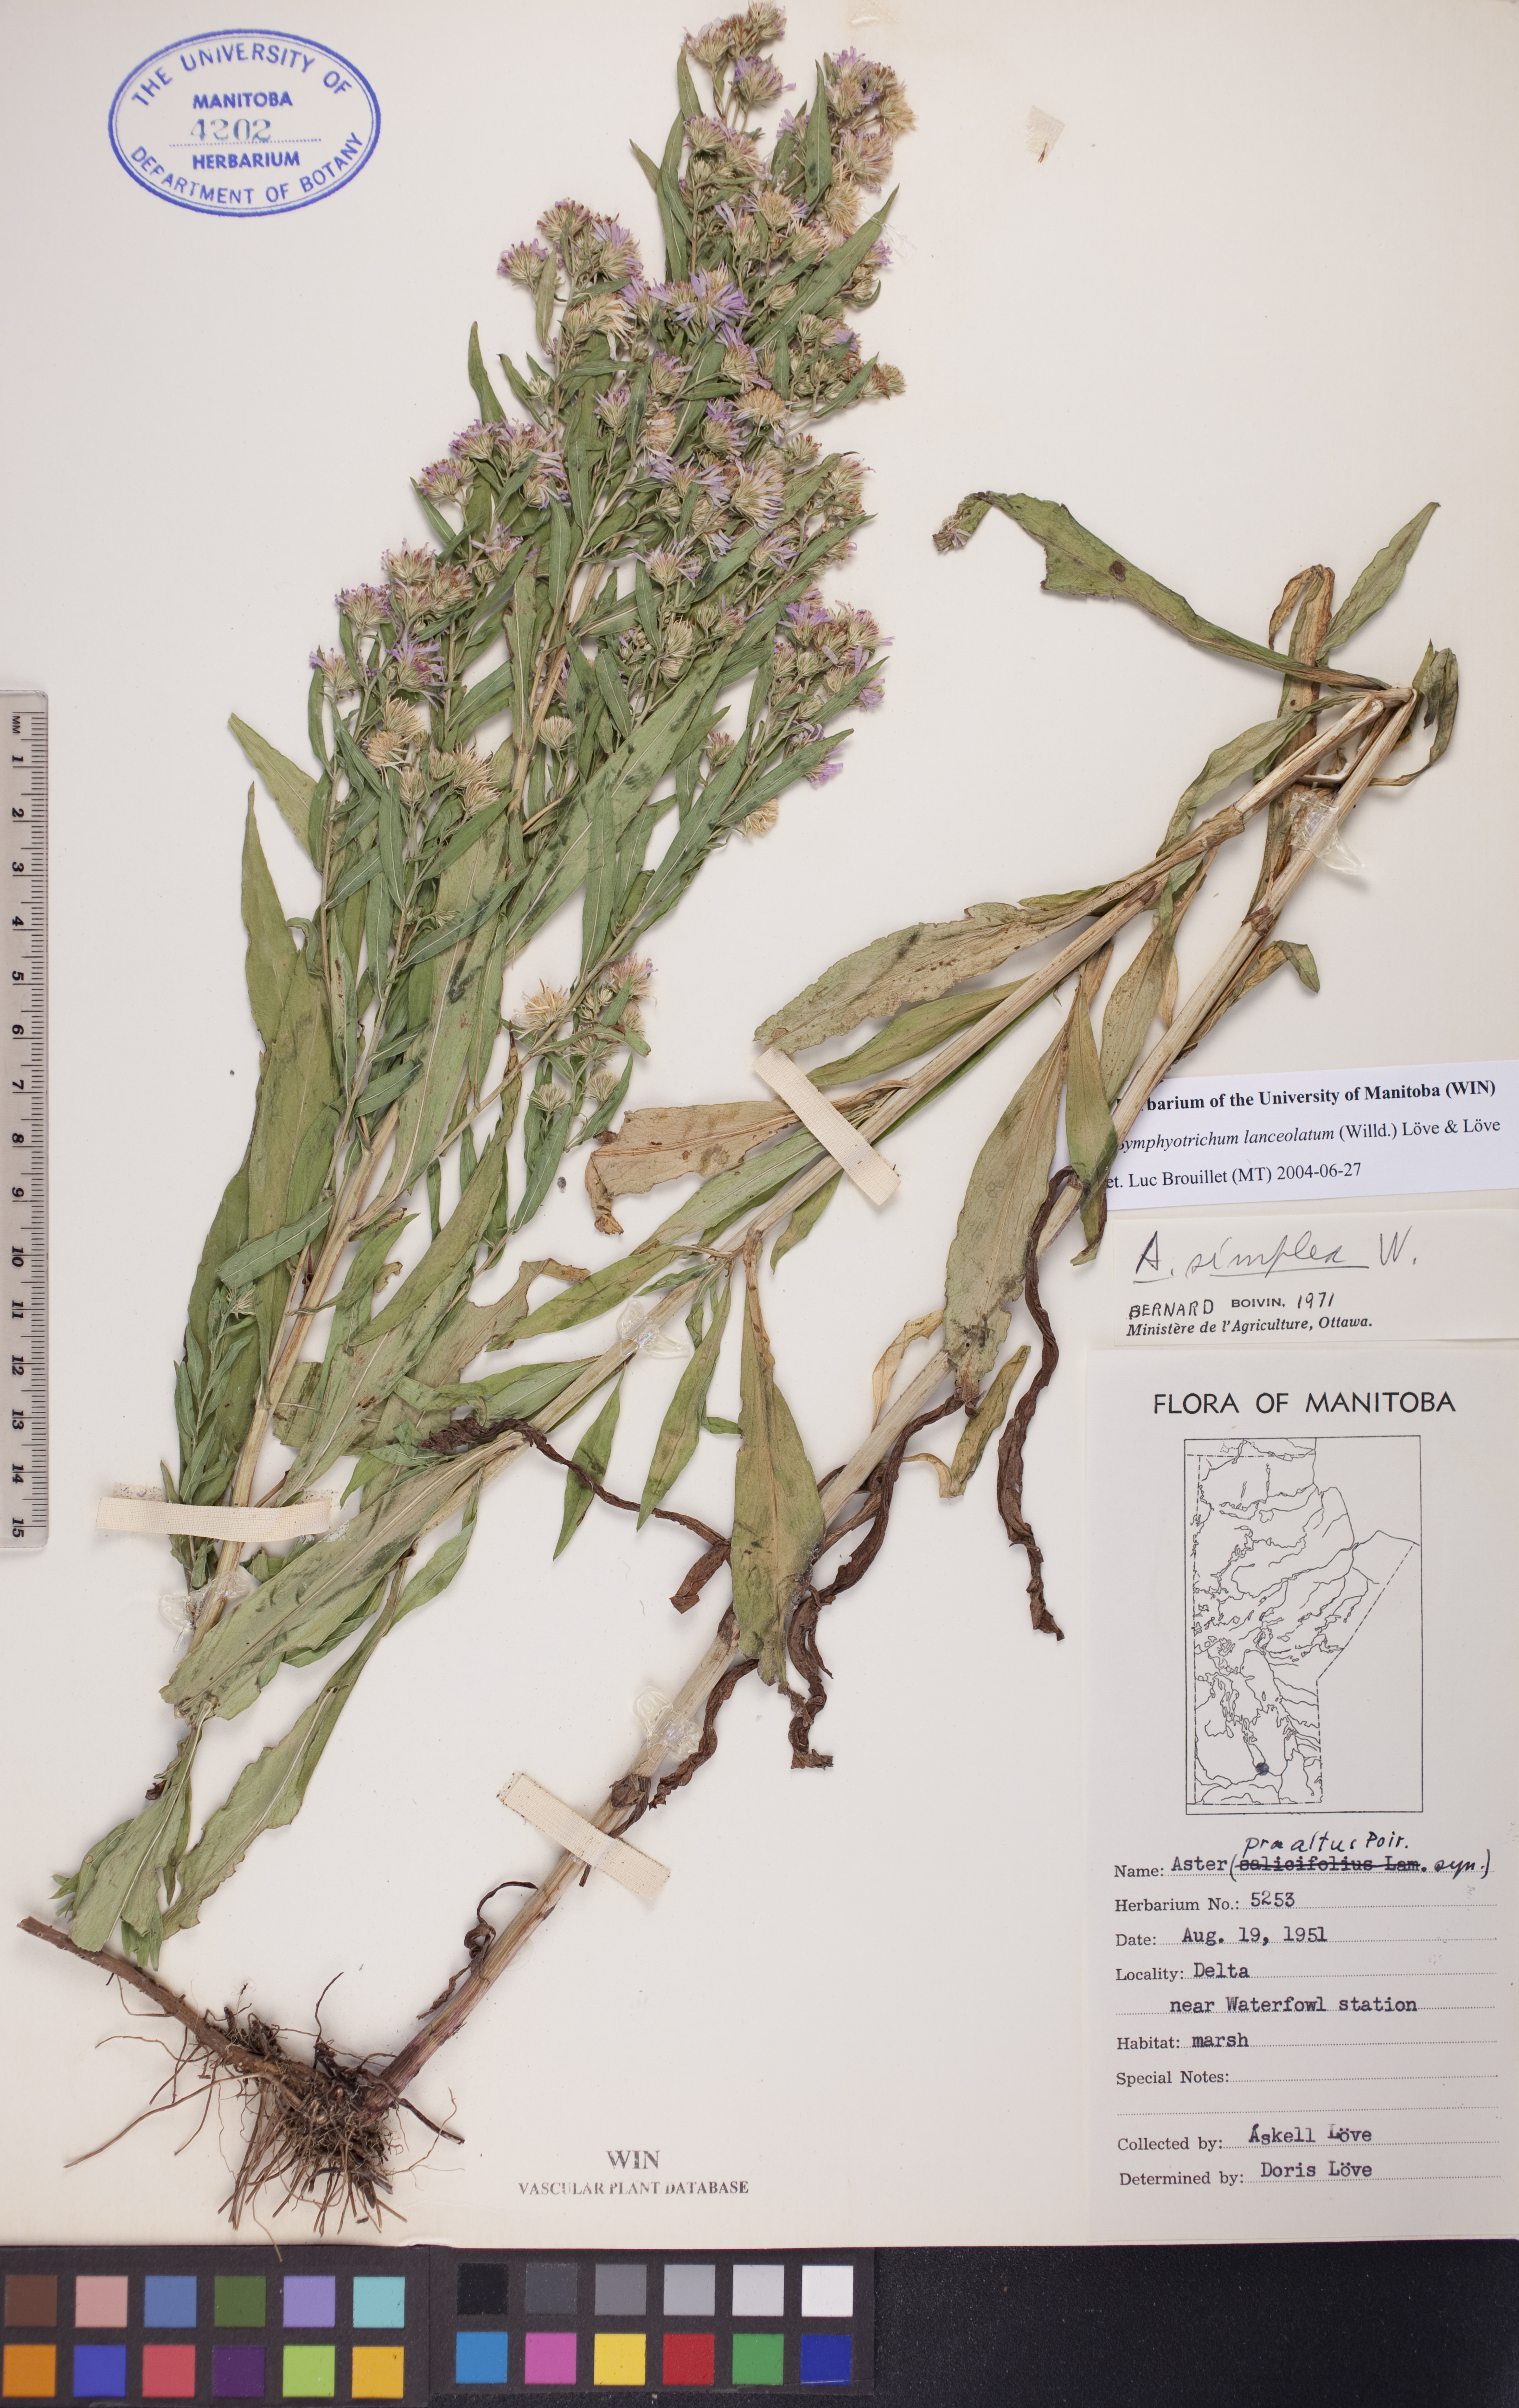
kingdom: Plantae
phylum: Tracheophyta
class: Magnoliopsida
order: Asterales
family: Asteraceae
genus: Symphyotrichum
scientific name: Symphyotrichum lanceolatum
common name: Panicled aster
